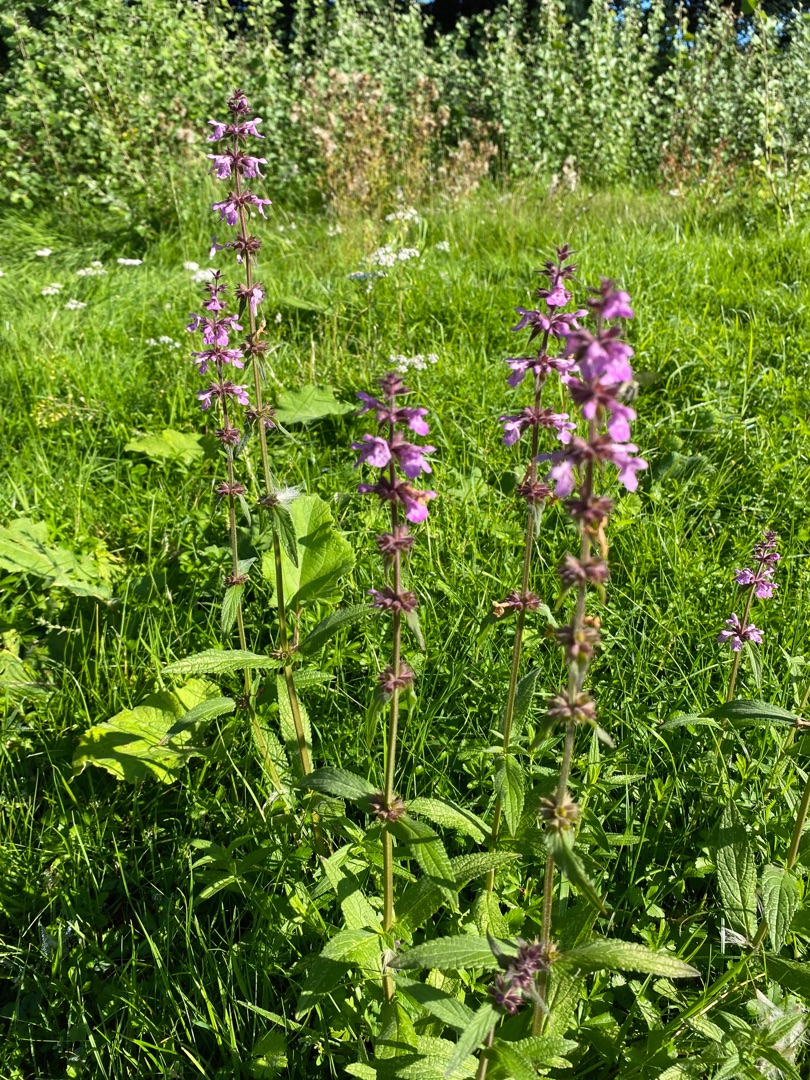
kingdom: Plantae
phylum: Tracheophyta
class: Magnoliopsida
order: Lamiales
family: Lamiaceae
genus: Stachys
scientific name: Stachys palustris
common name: Kær-galtetand
